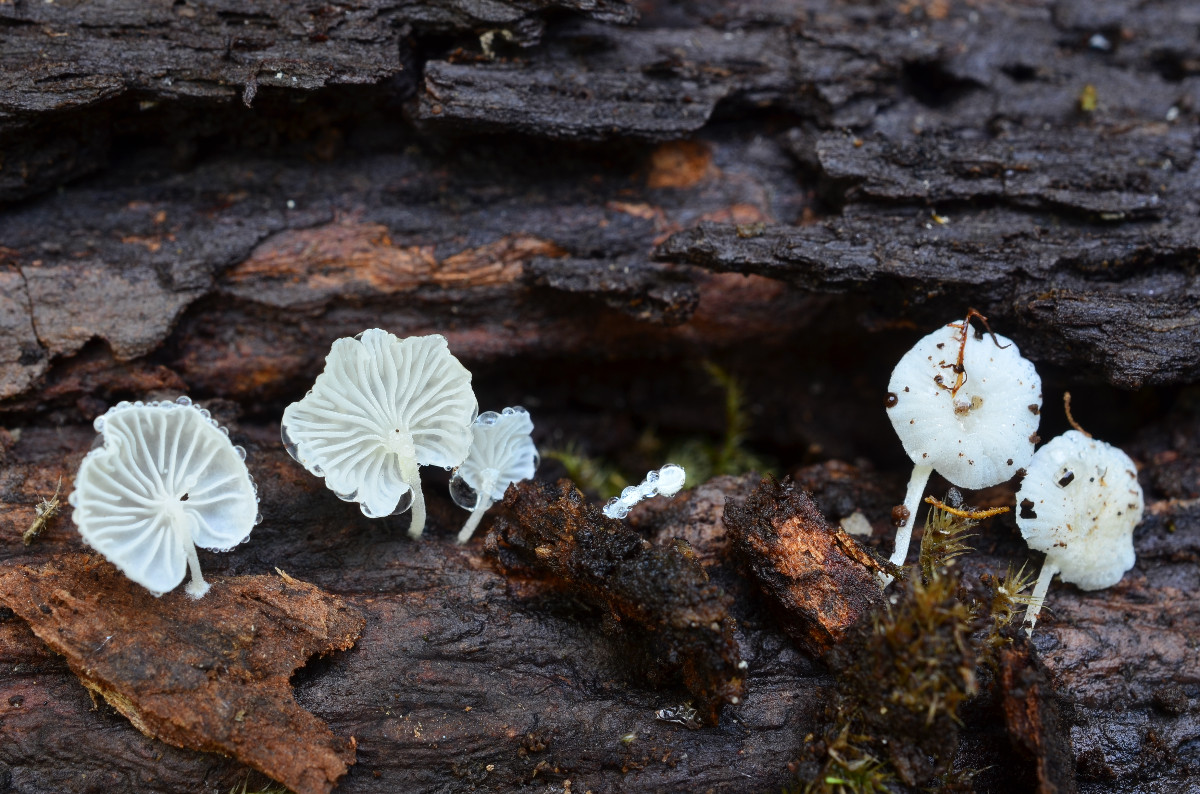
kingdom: Fungi
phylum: Basidiomycota
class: Agaricomycetes
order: Agaricales
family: Mycenaceae
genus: Hemimycena
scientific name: Hemimycena cephalotricha
